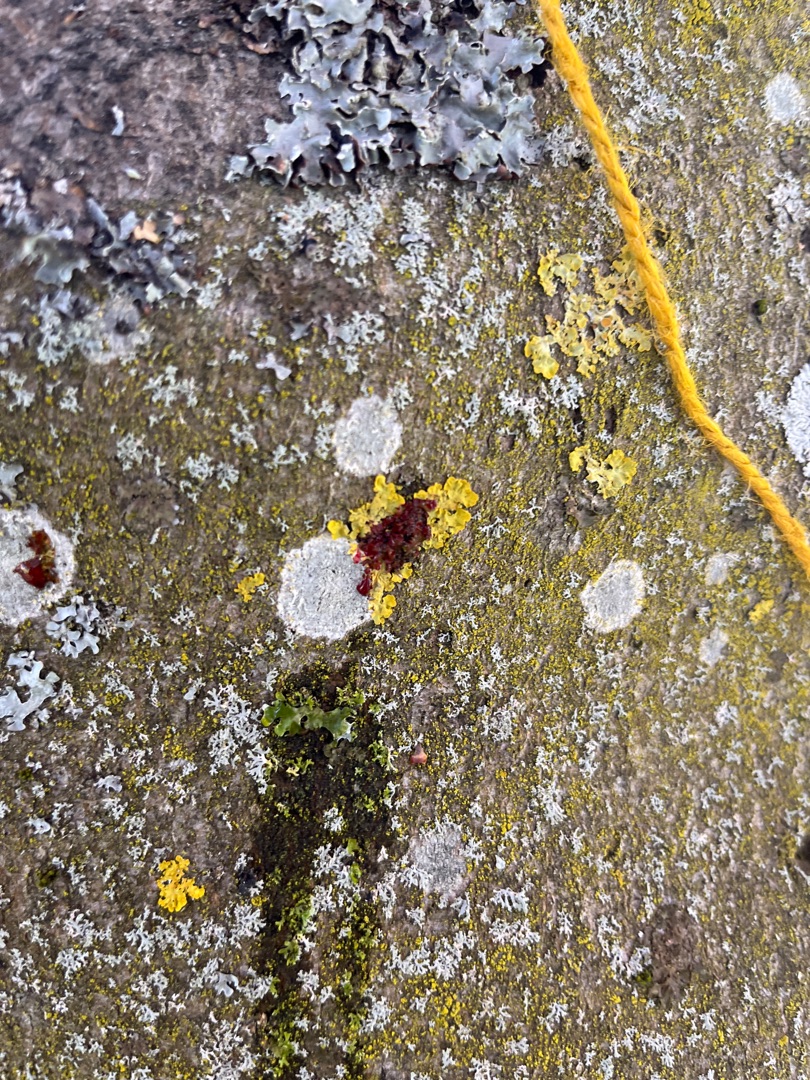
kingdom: Fungi
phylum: Ascomycota
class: Lecanoromycetes
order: Teloschistales
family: Teloschistaceae
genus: Xanthoria
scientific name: Xanthoria parietina
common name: Almindelig væggelav
